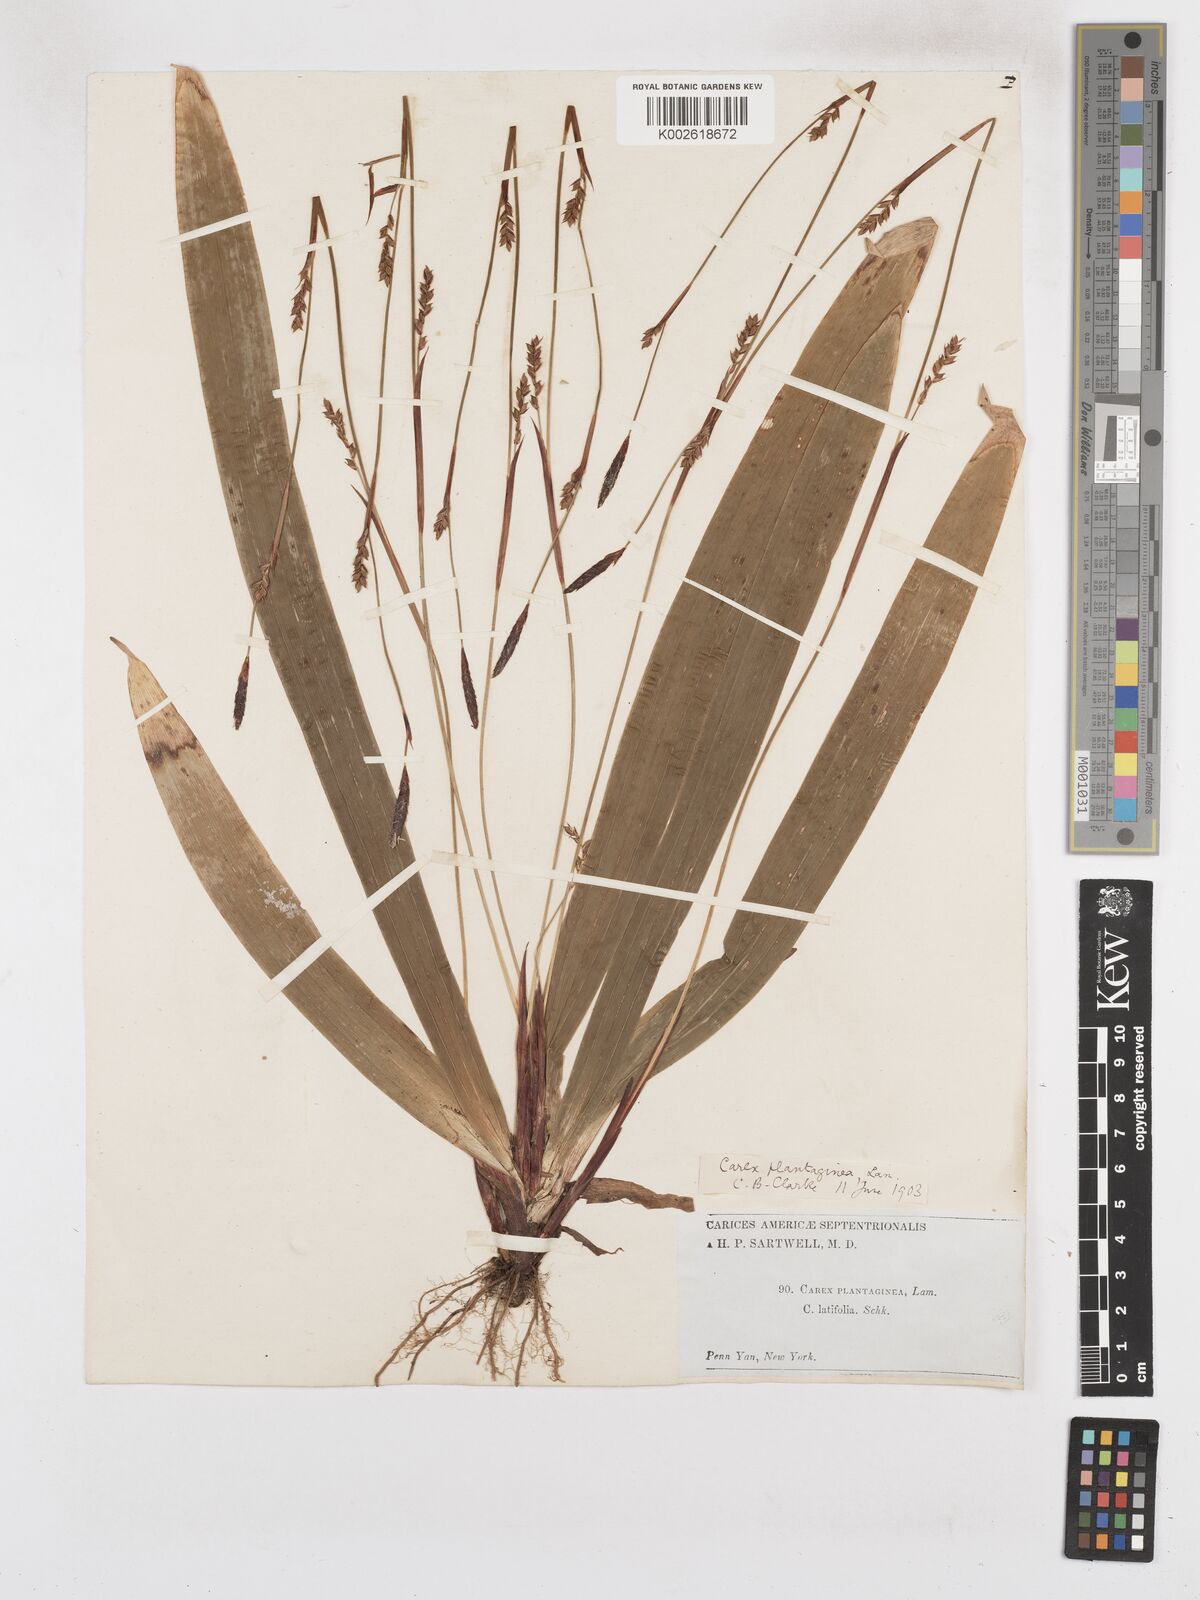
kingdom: Plantae
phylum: Tracheophyta
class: Liliopsida
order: Poales
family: Cyperaceae
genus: Carex
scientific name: Carex plantaginea
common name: Plantain-leaved sedge
